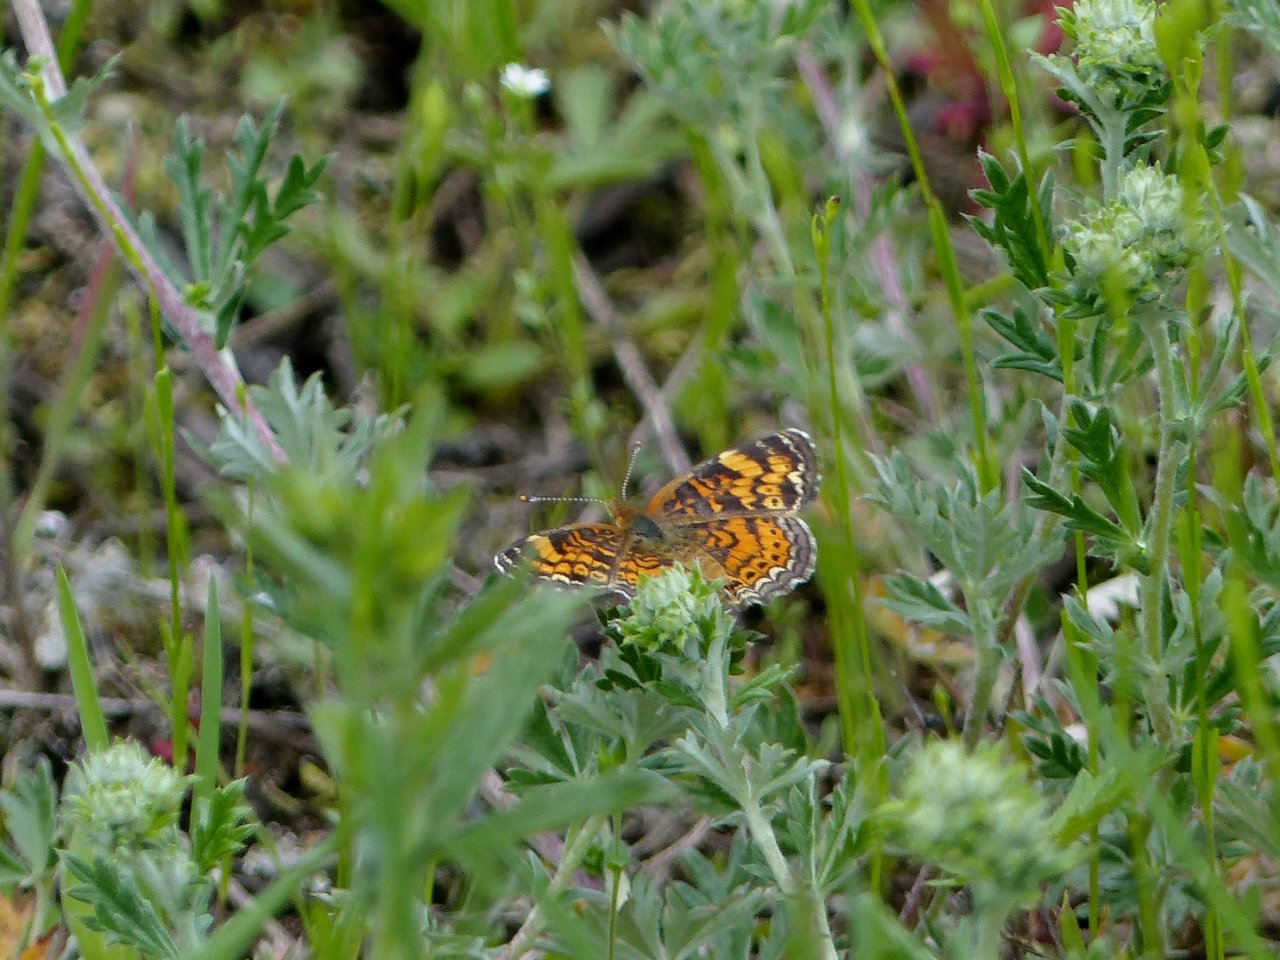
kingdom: Animalia
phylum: Arthropoda
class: Insecta
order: Lepidoptera
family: Nymphalidae
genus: Phyciodes
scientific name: Phyciodes tharos
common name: Pearl Crescent
